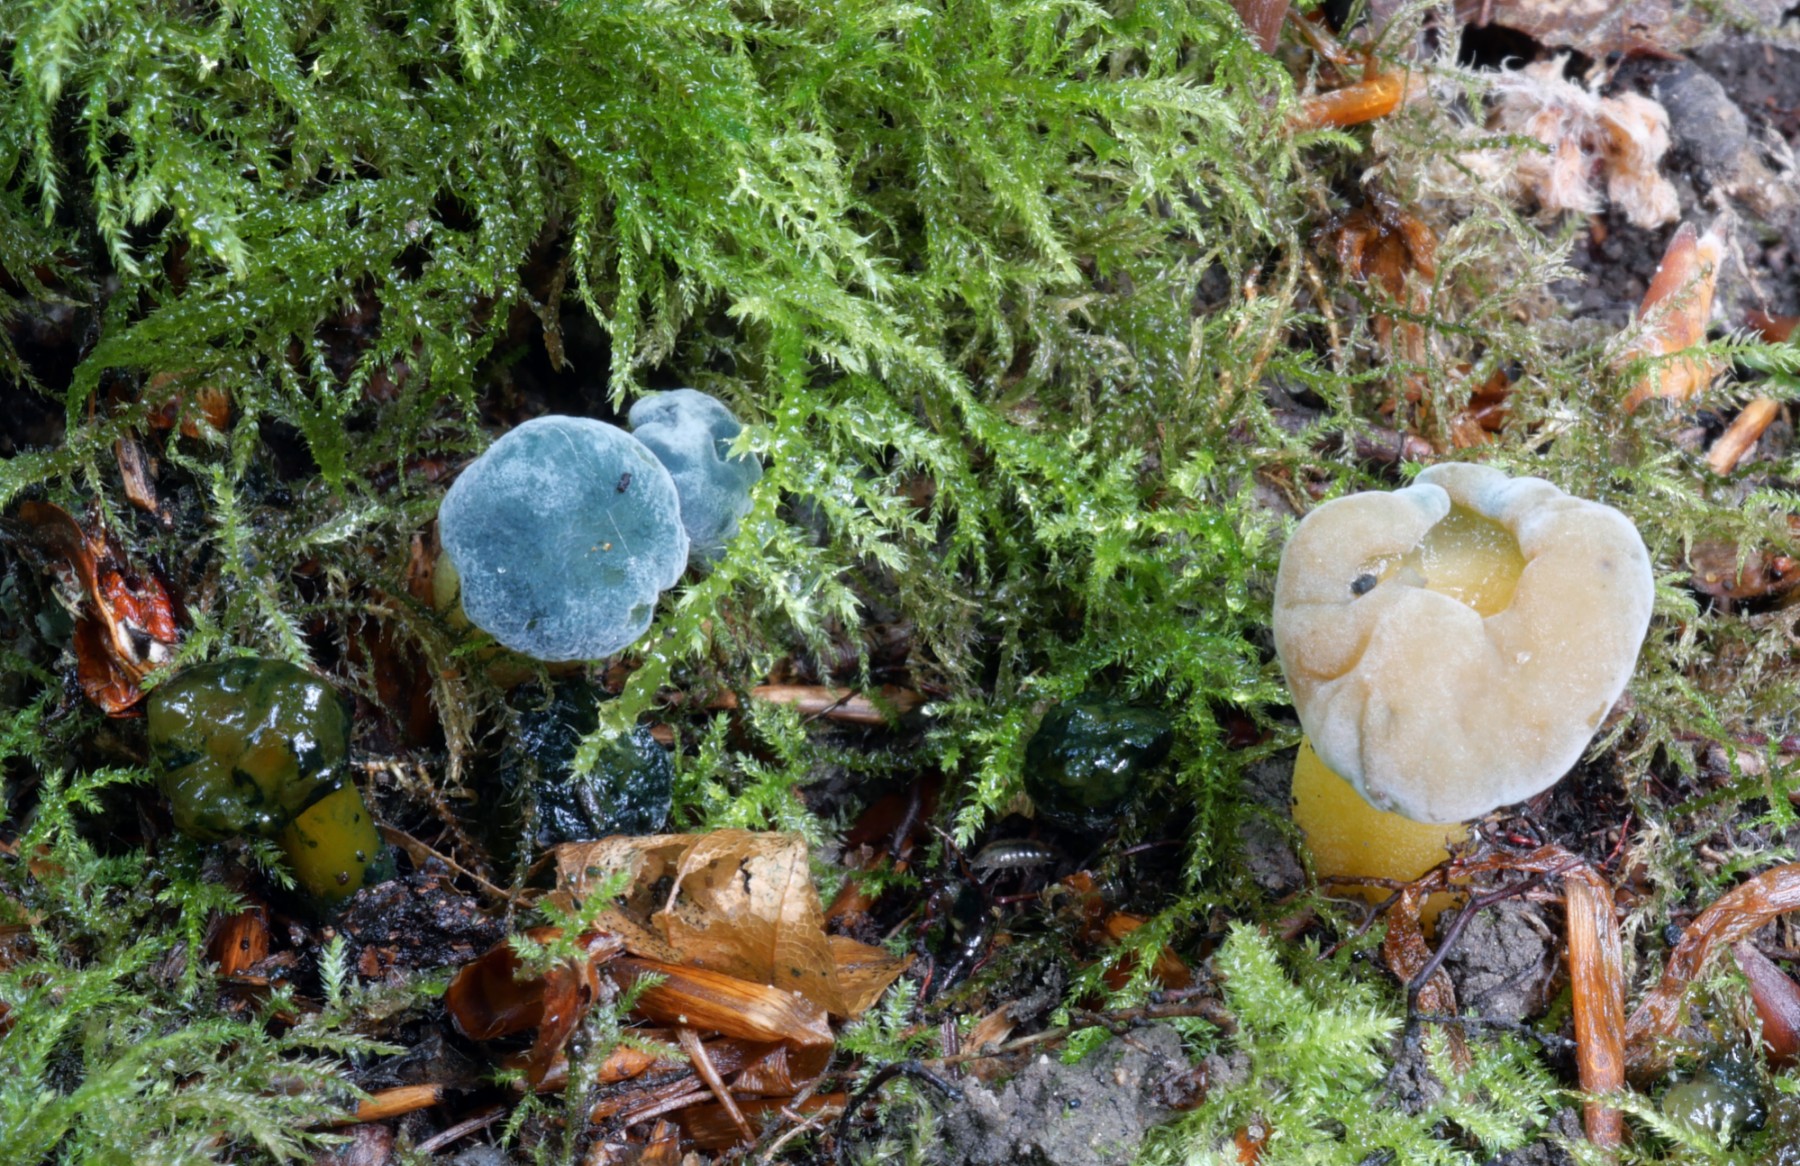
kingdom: Fungi
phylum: Ascomycota
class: Sordariomycetes
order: Hypocreales
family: Hypocreaceae
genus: Hypomyces
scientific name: Hypomyces leotiicola
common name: ravsvamp-snylteskorpe
